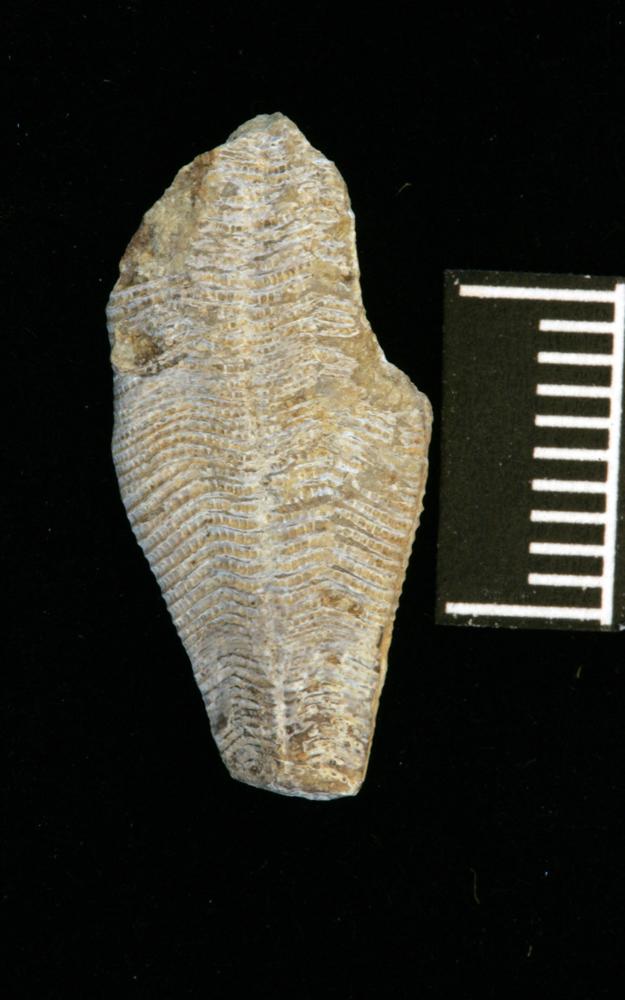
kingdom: Animalia
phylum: Cnidaria
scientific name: Cnidaria
